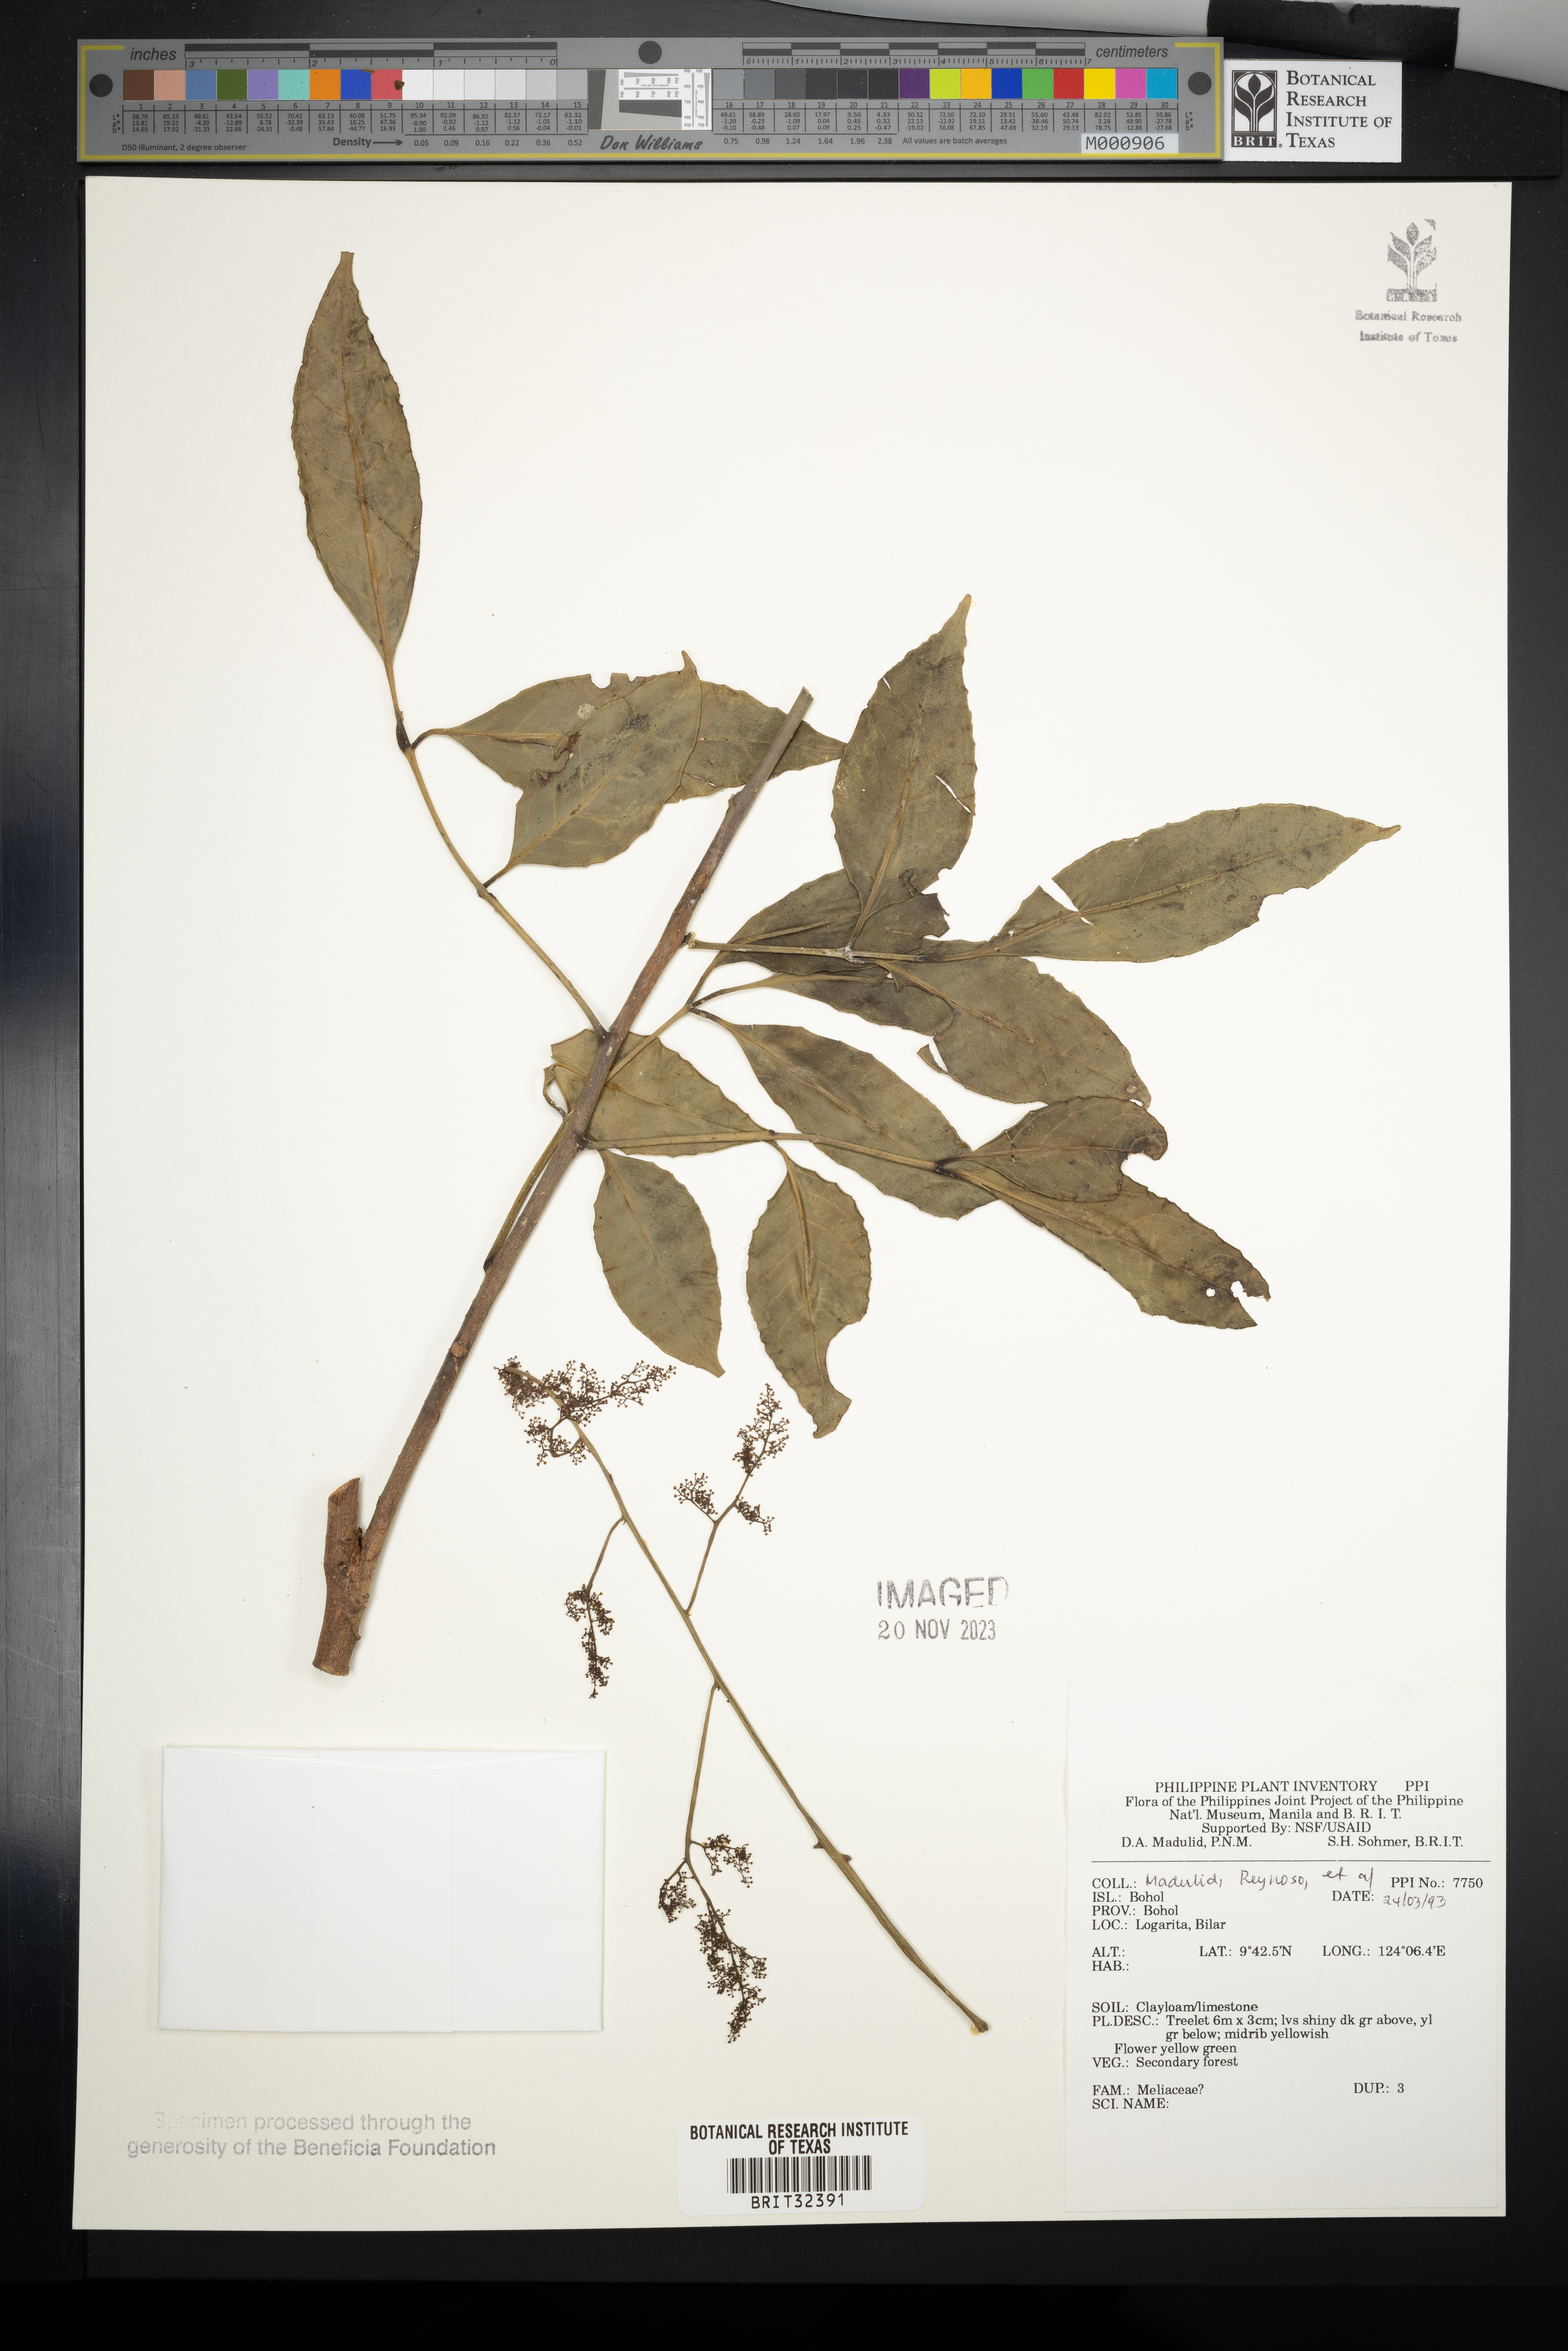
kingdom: Plantae
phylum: Tracheophyta
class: Magnoliopsida
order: Sapindales
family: Meliaceae
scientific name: Meliaceae
